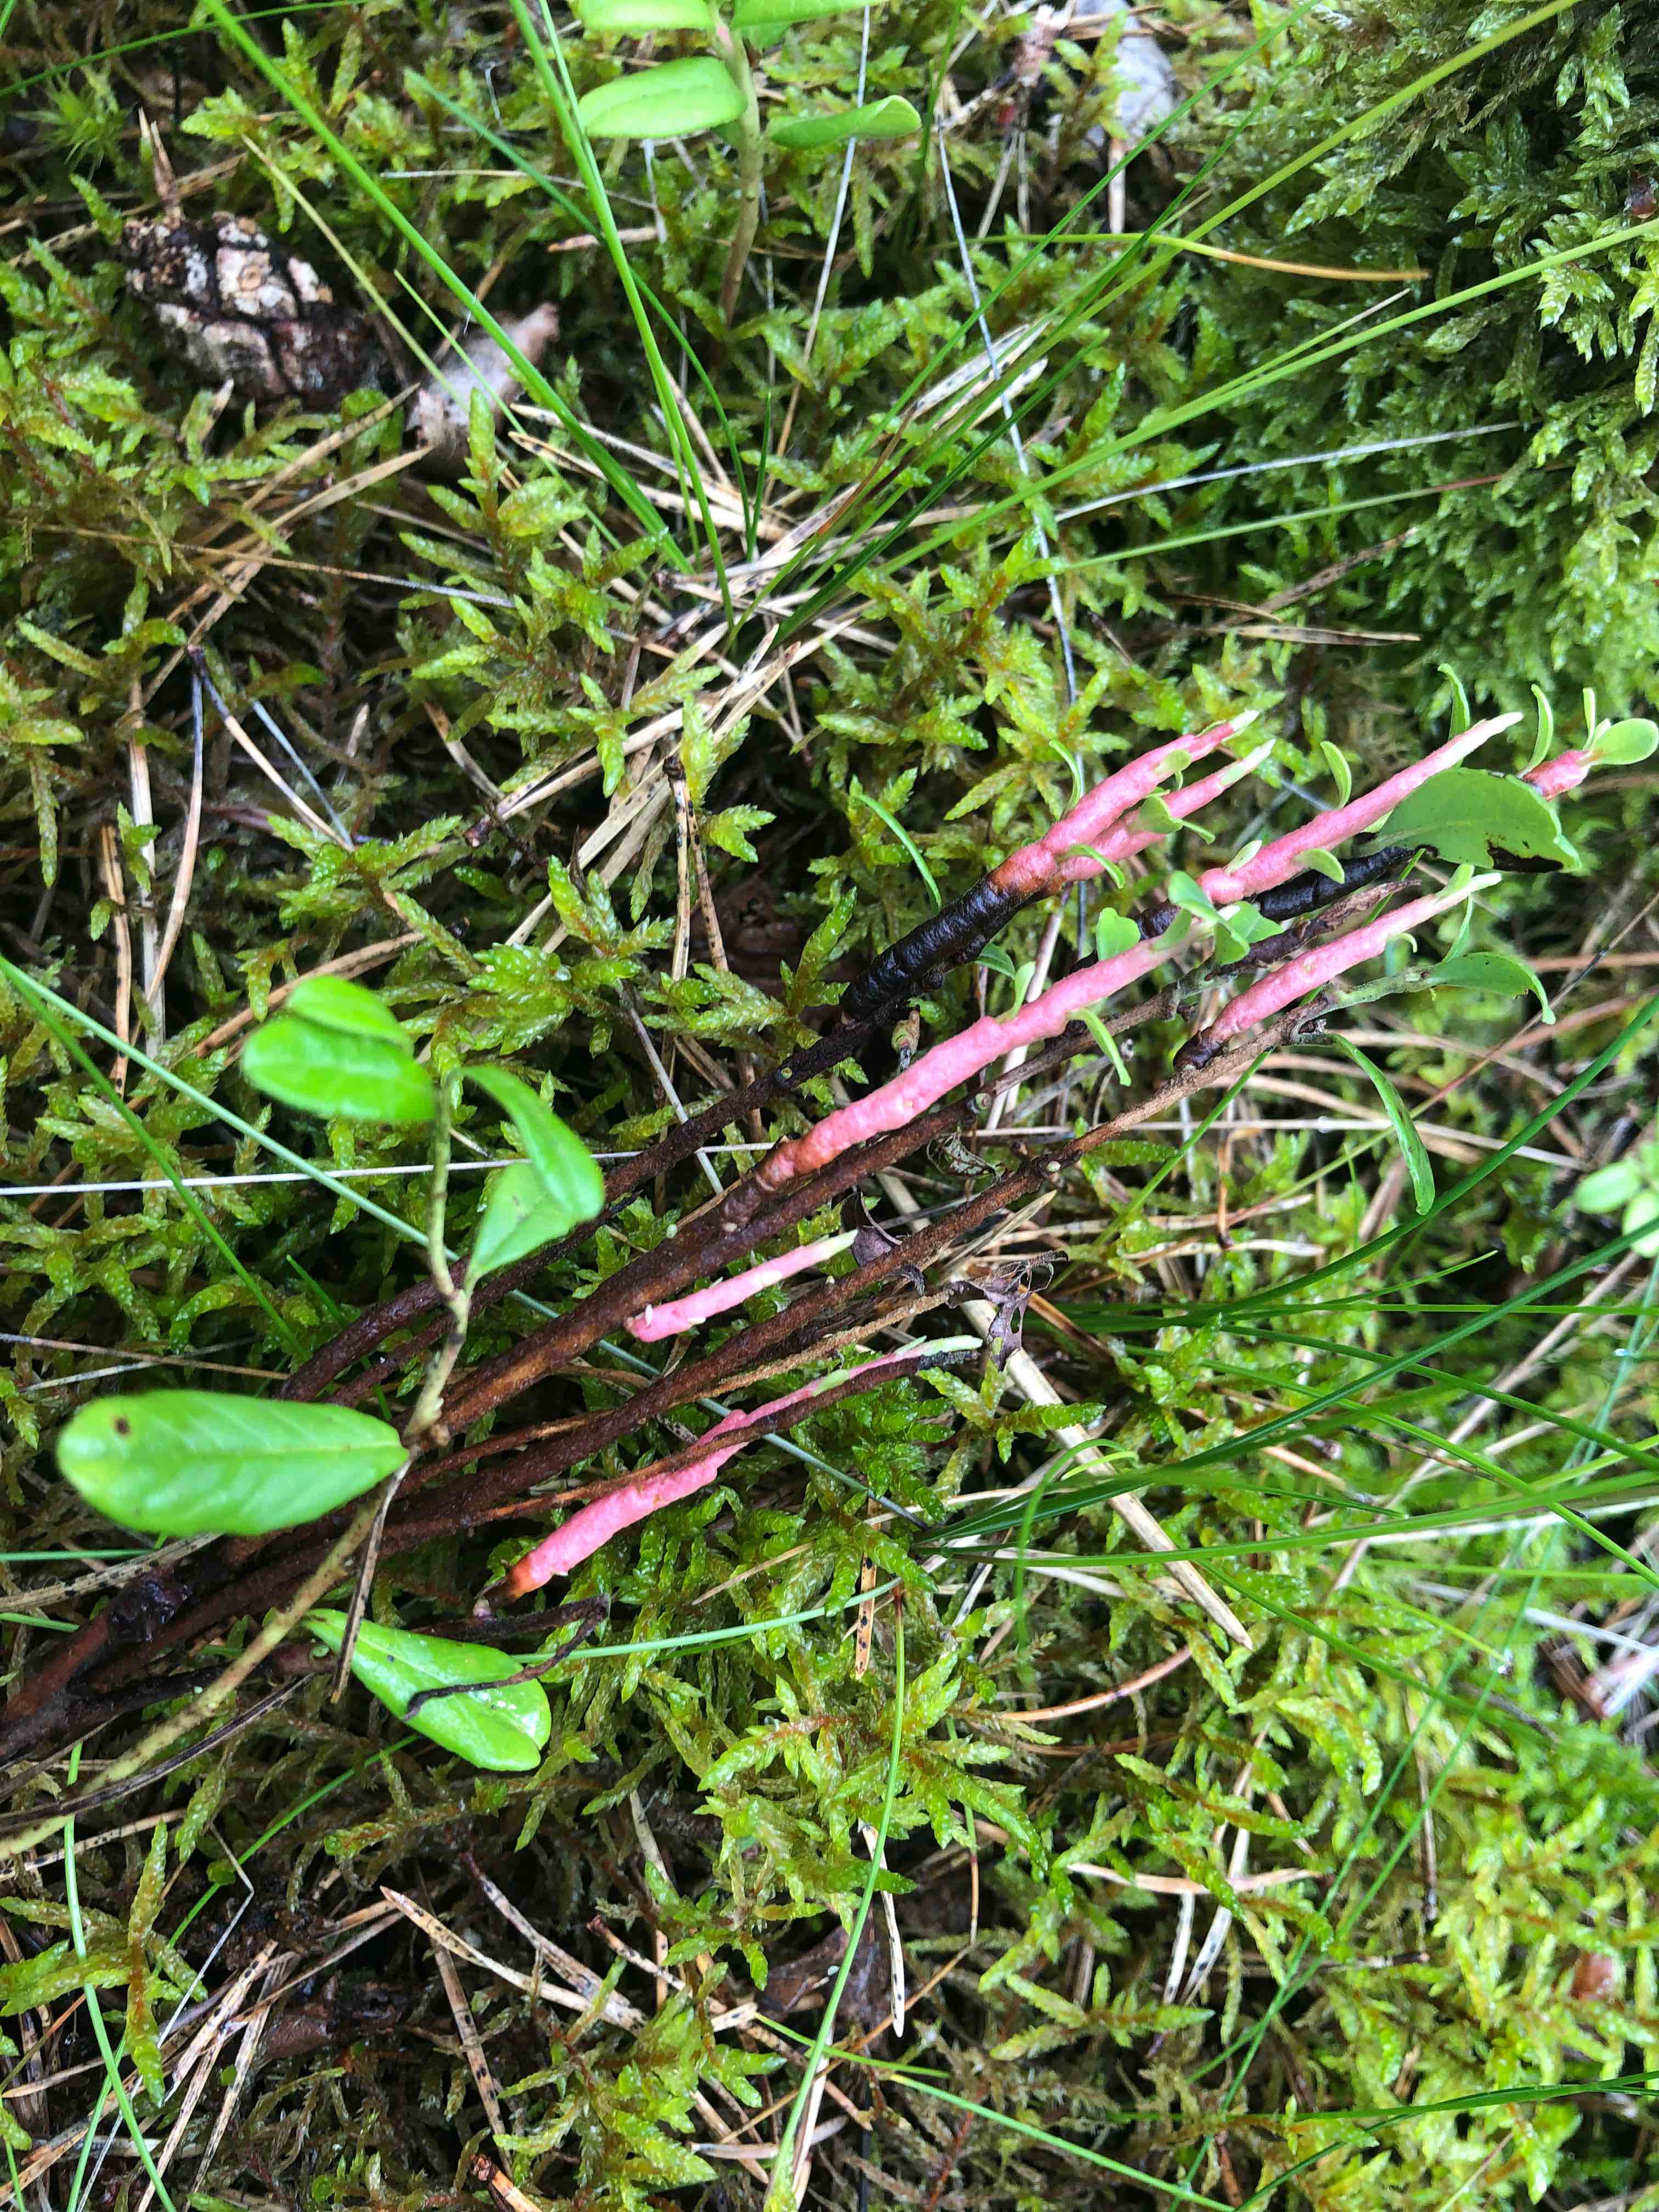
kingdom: Fungi
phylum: Basidiomycota
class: Pucciniomycetes
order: Pucciniales
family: Pucciniastraceae
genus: Calyptospora
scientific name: Calyptospora columnaris
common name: Huckleberry broom rust fungus
